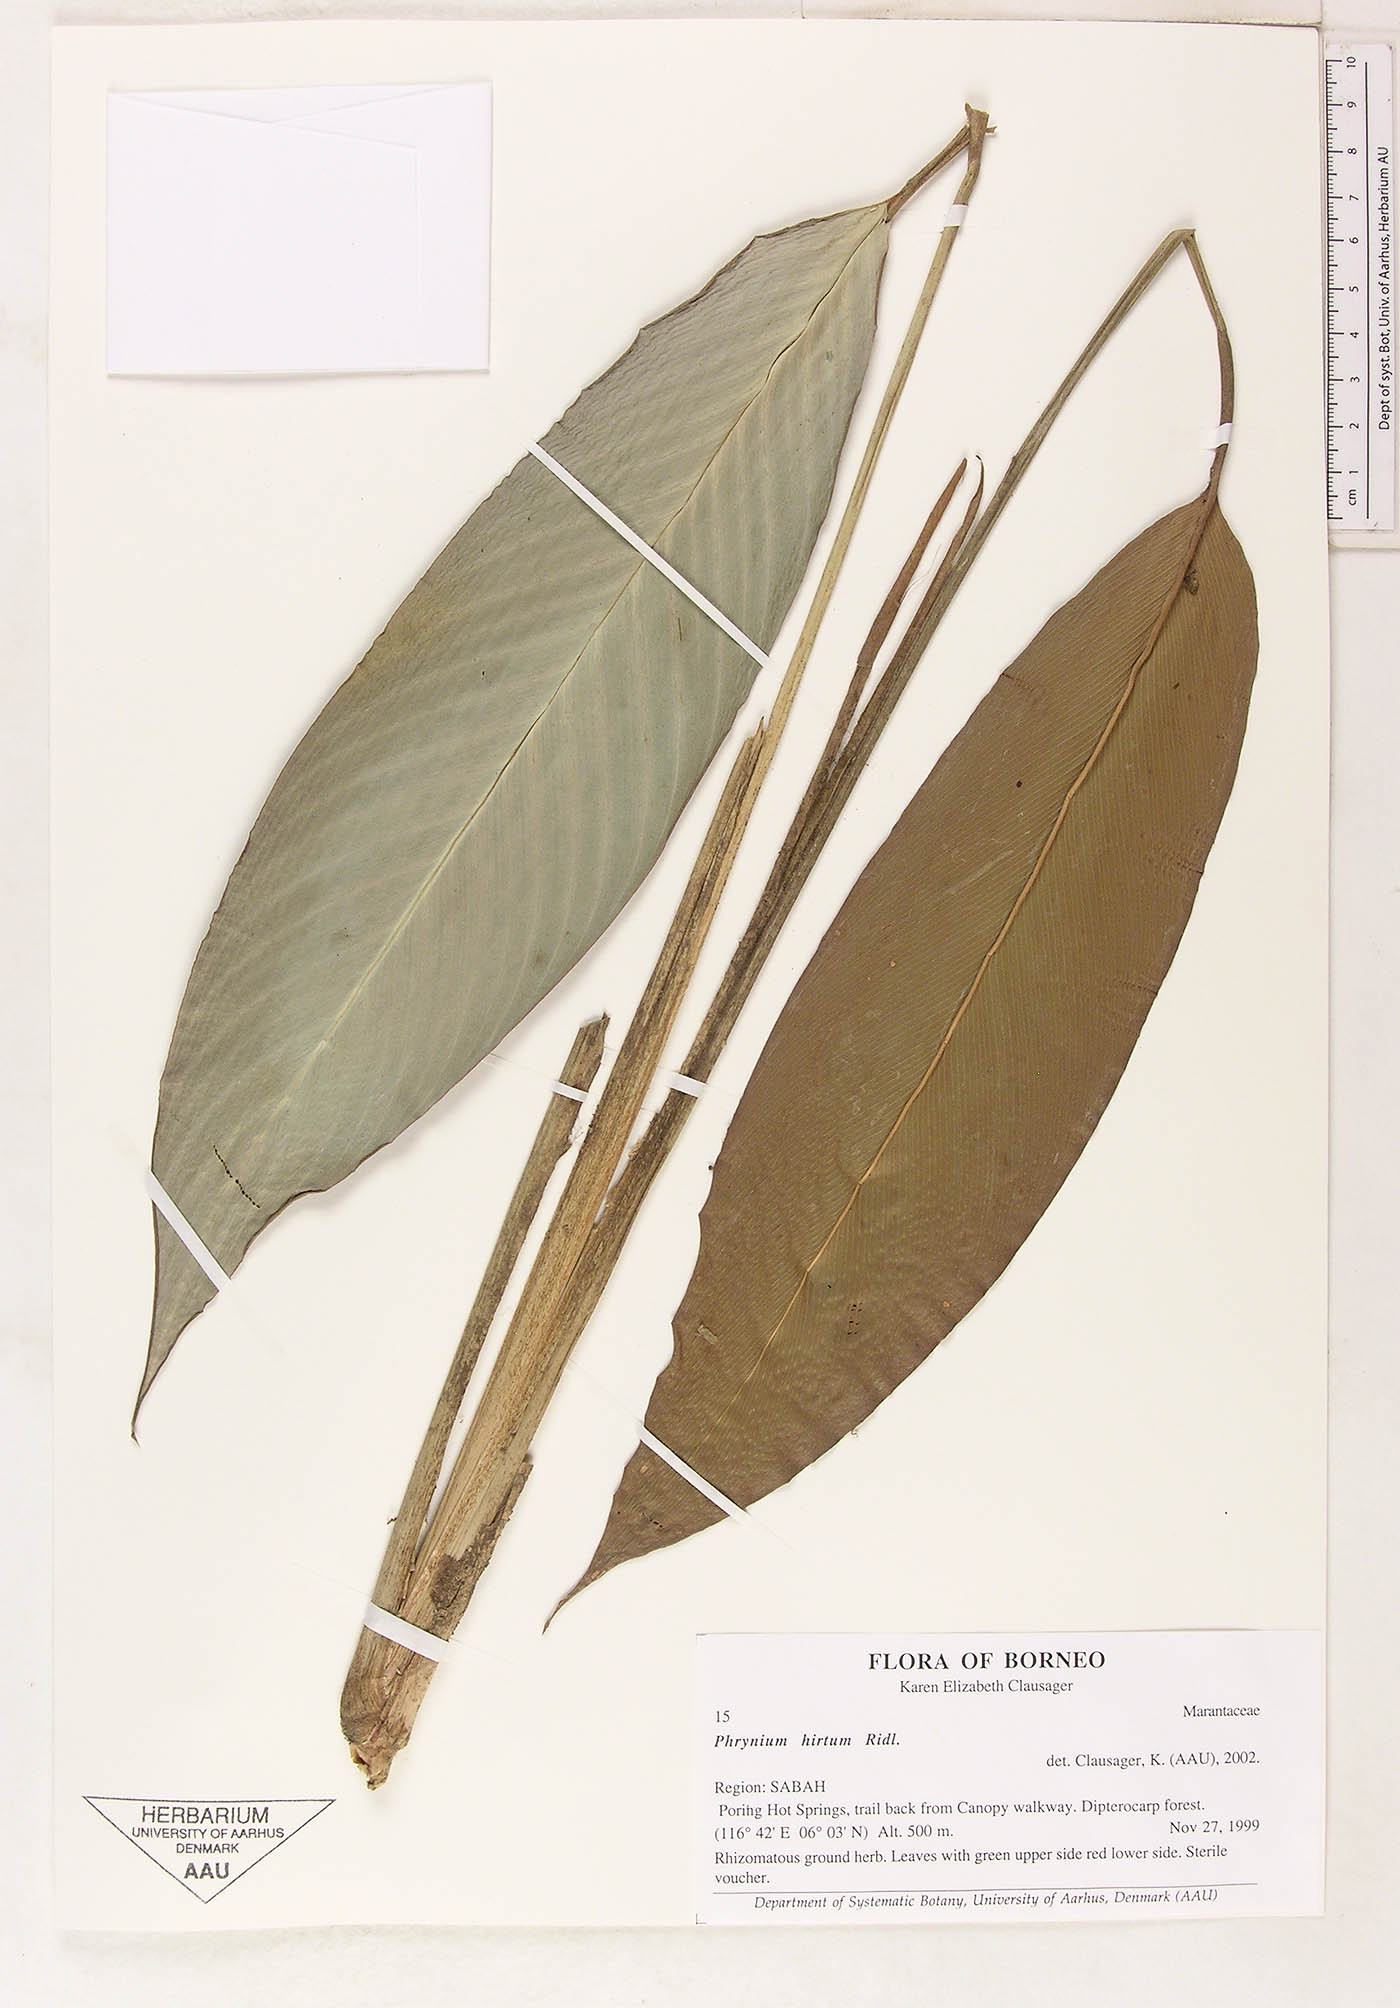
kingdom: Plantae
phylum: Tracheophyta
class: Liliopsida
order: Zingiberales
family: Marantaceae
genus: Phrynium
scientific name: Phrynium hirtum
